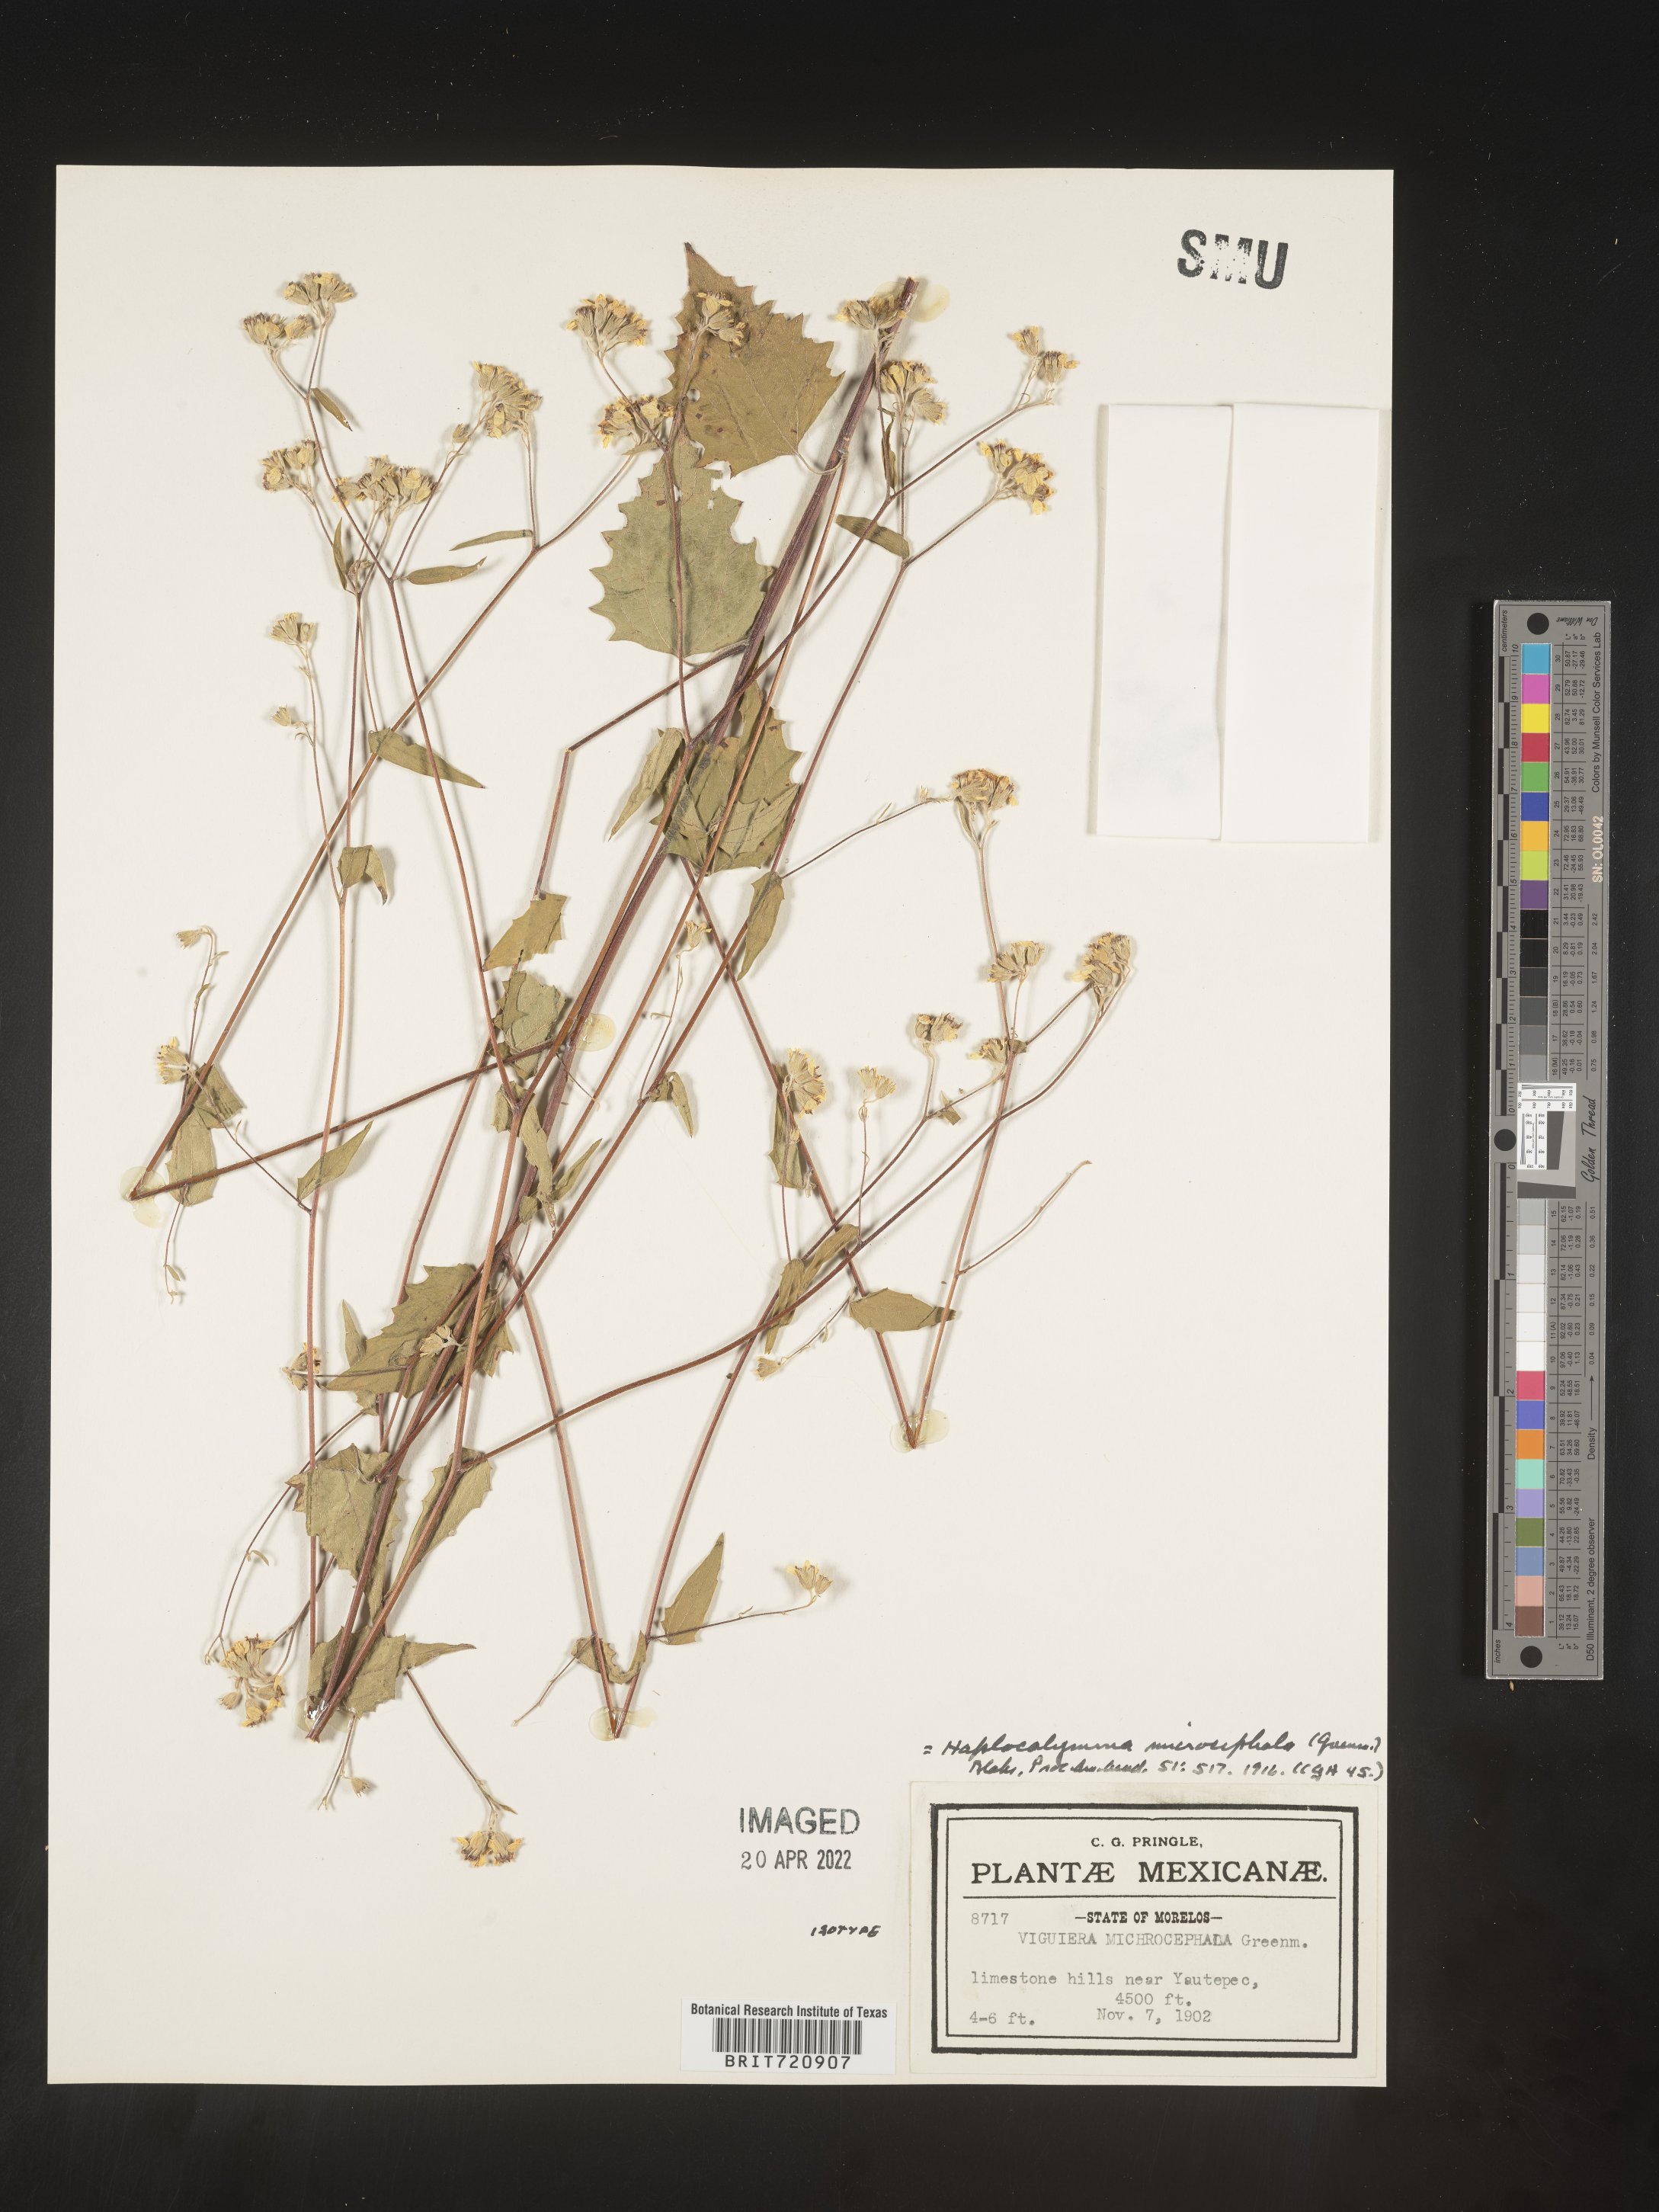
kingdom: Plantae
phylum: Tracheophyta
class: Magnoliopsida
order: Asterales
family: Asteraceae
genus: Hymenostephium
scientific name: Hymenostephium uniseriatum
